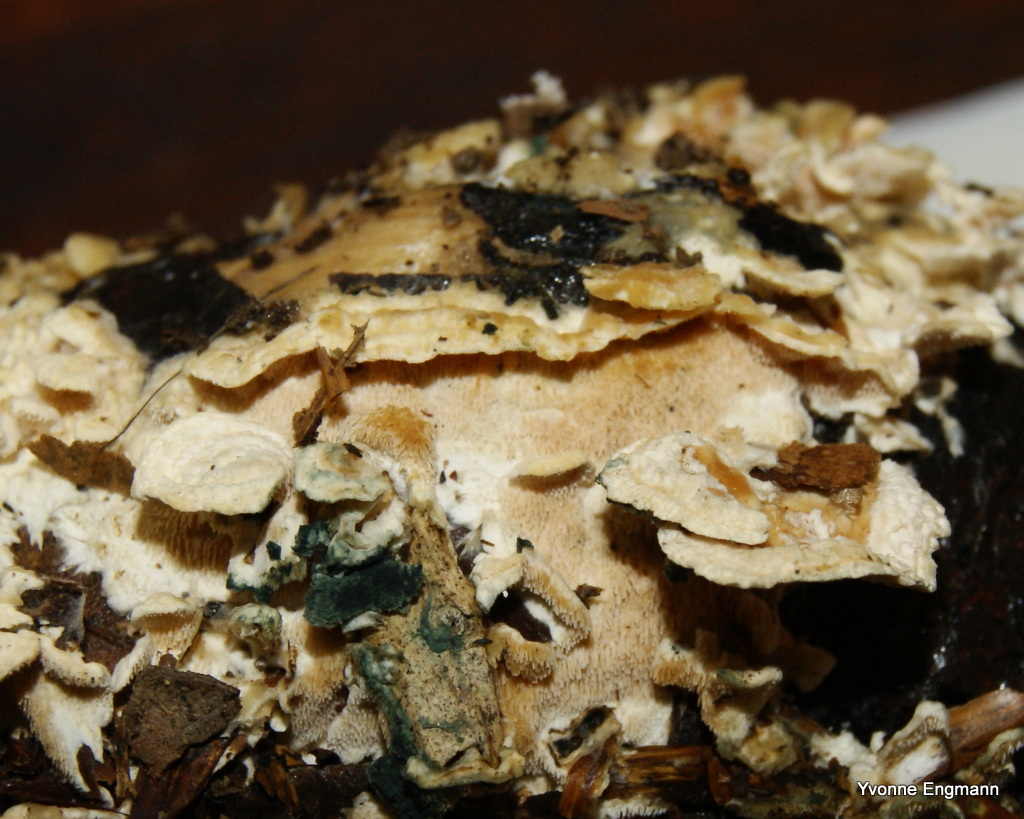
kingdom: Fungi
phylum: Basidiomycota
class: Agaricomycetes
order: Polyporales
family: Steccherinaceae
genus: Steccherinum
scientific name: Steccherinum ochraceum
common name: almindelig skønpig
